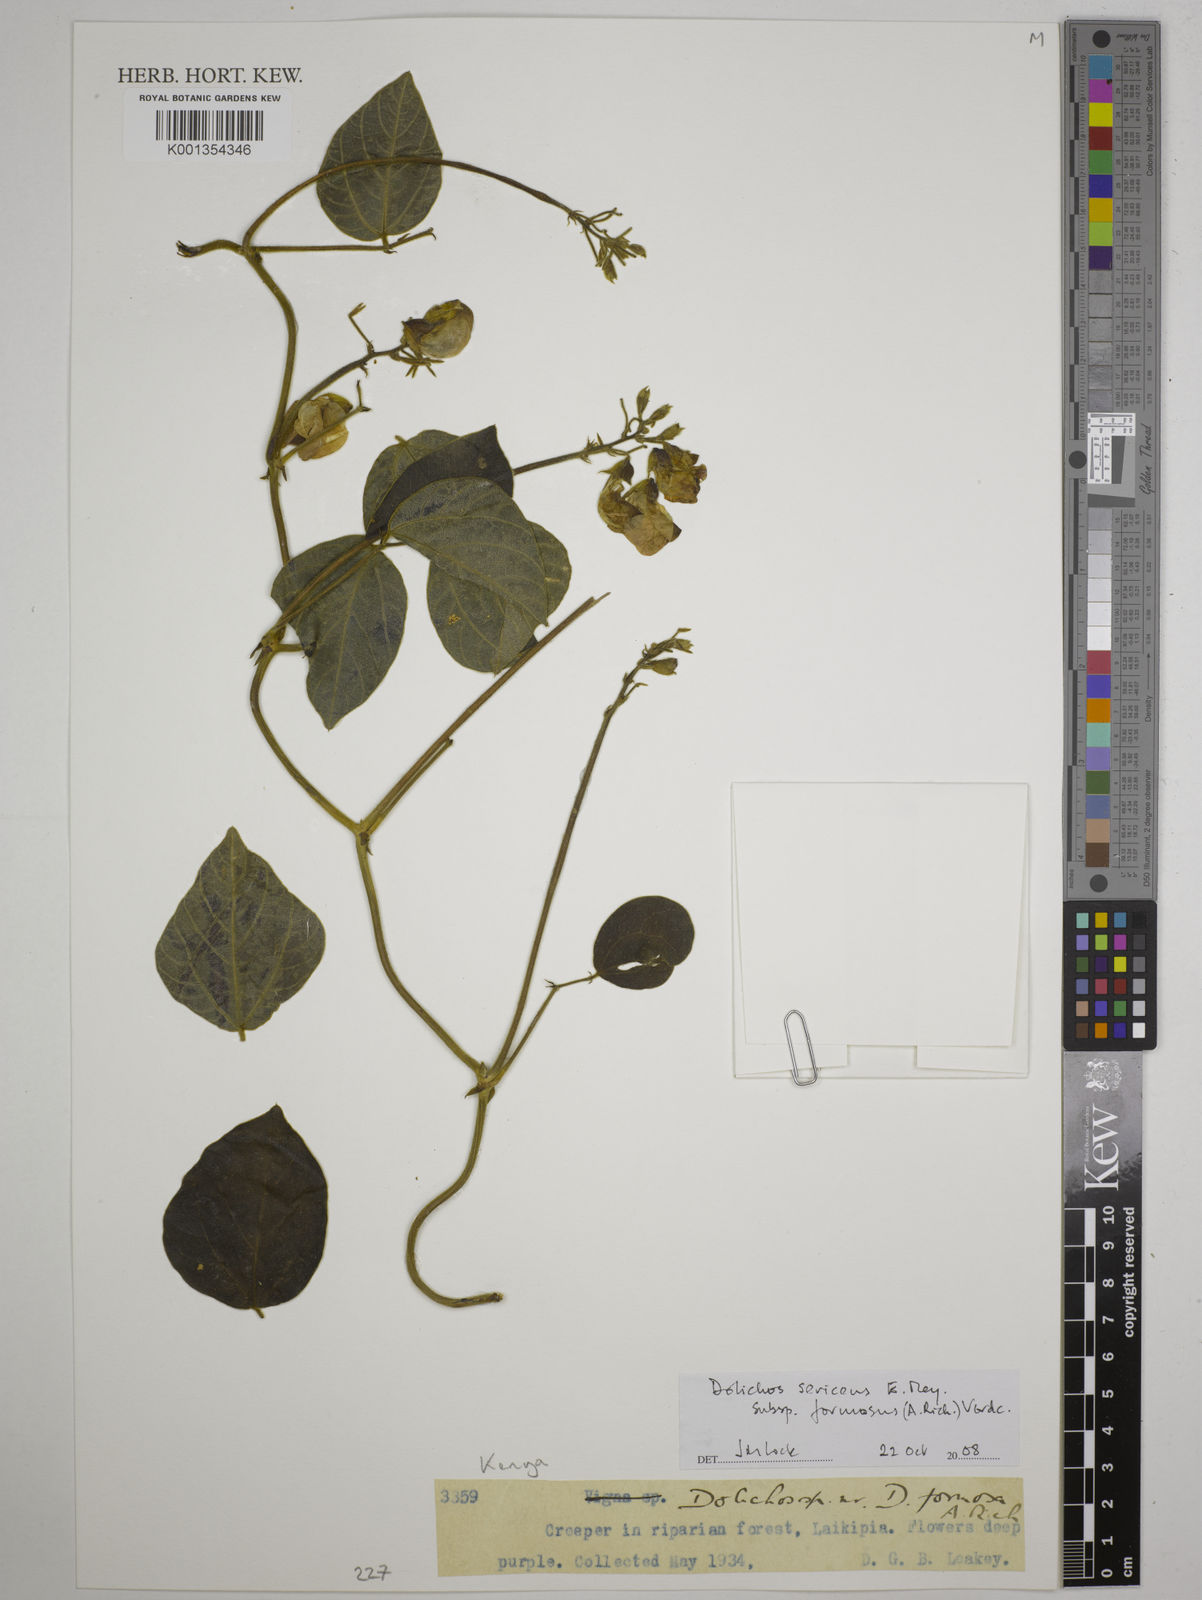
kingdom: Plantae
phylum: Tracheophyta
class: Magnoliopsida
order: Fabales
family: Fabaceae
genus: Dolichos
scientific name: Dolichos
